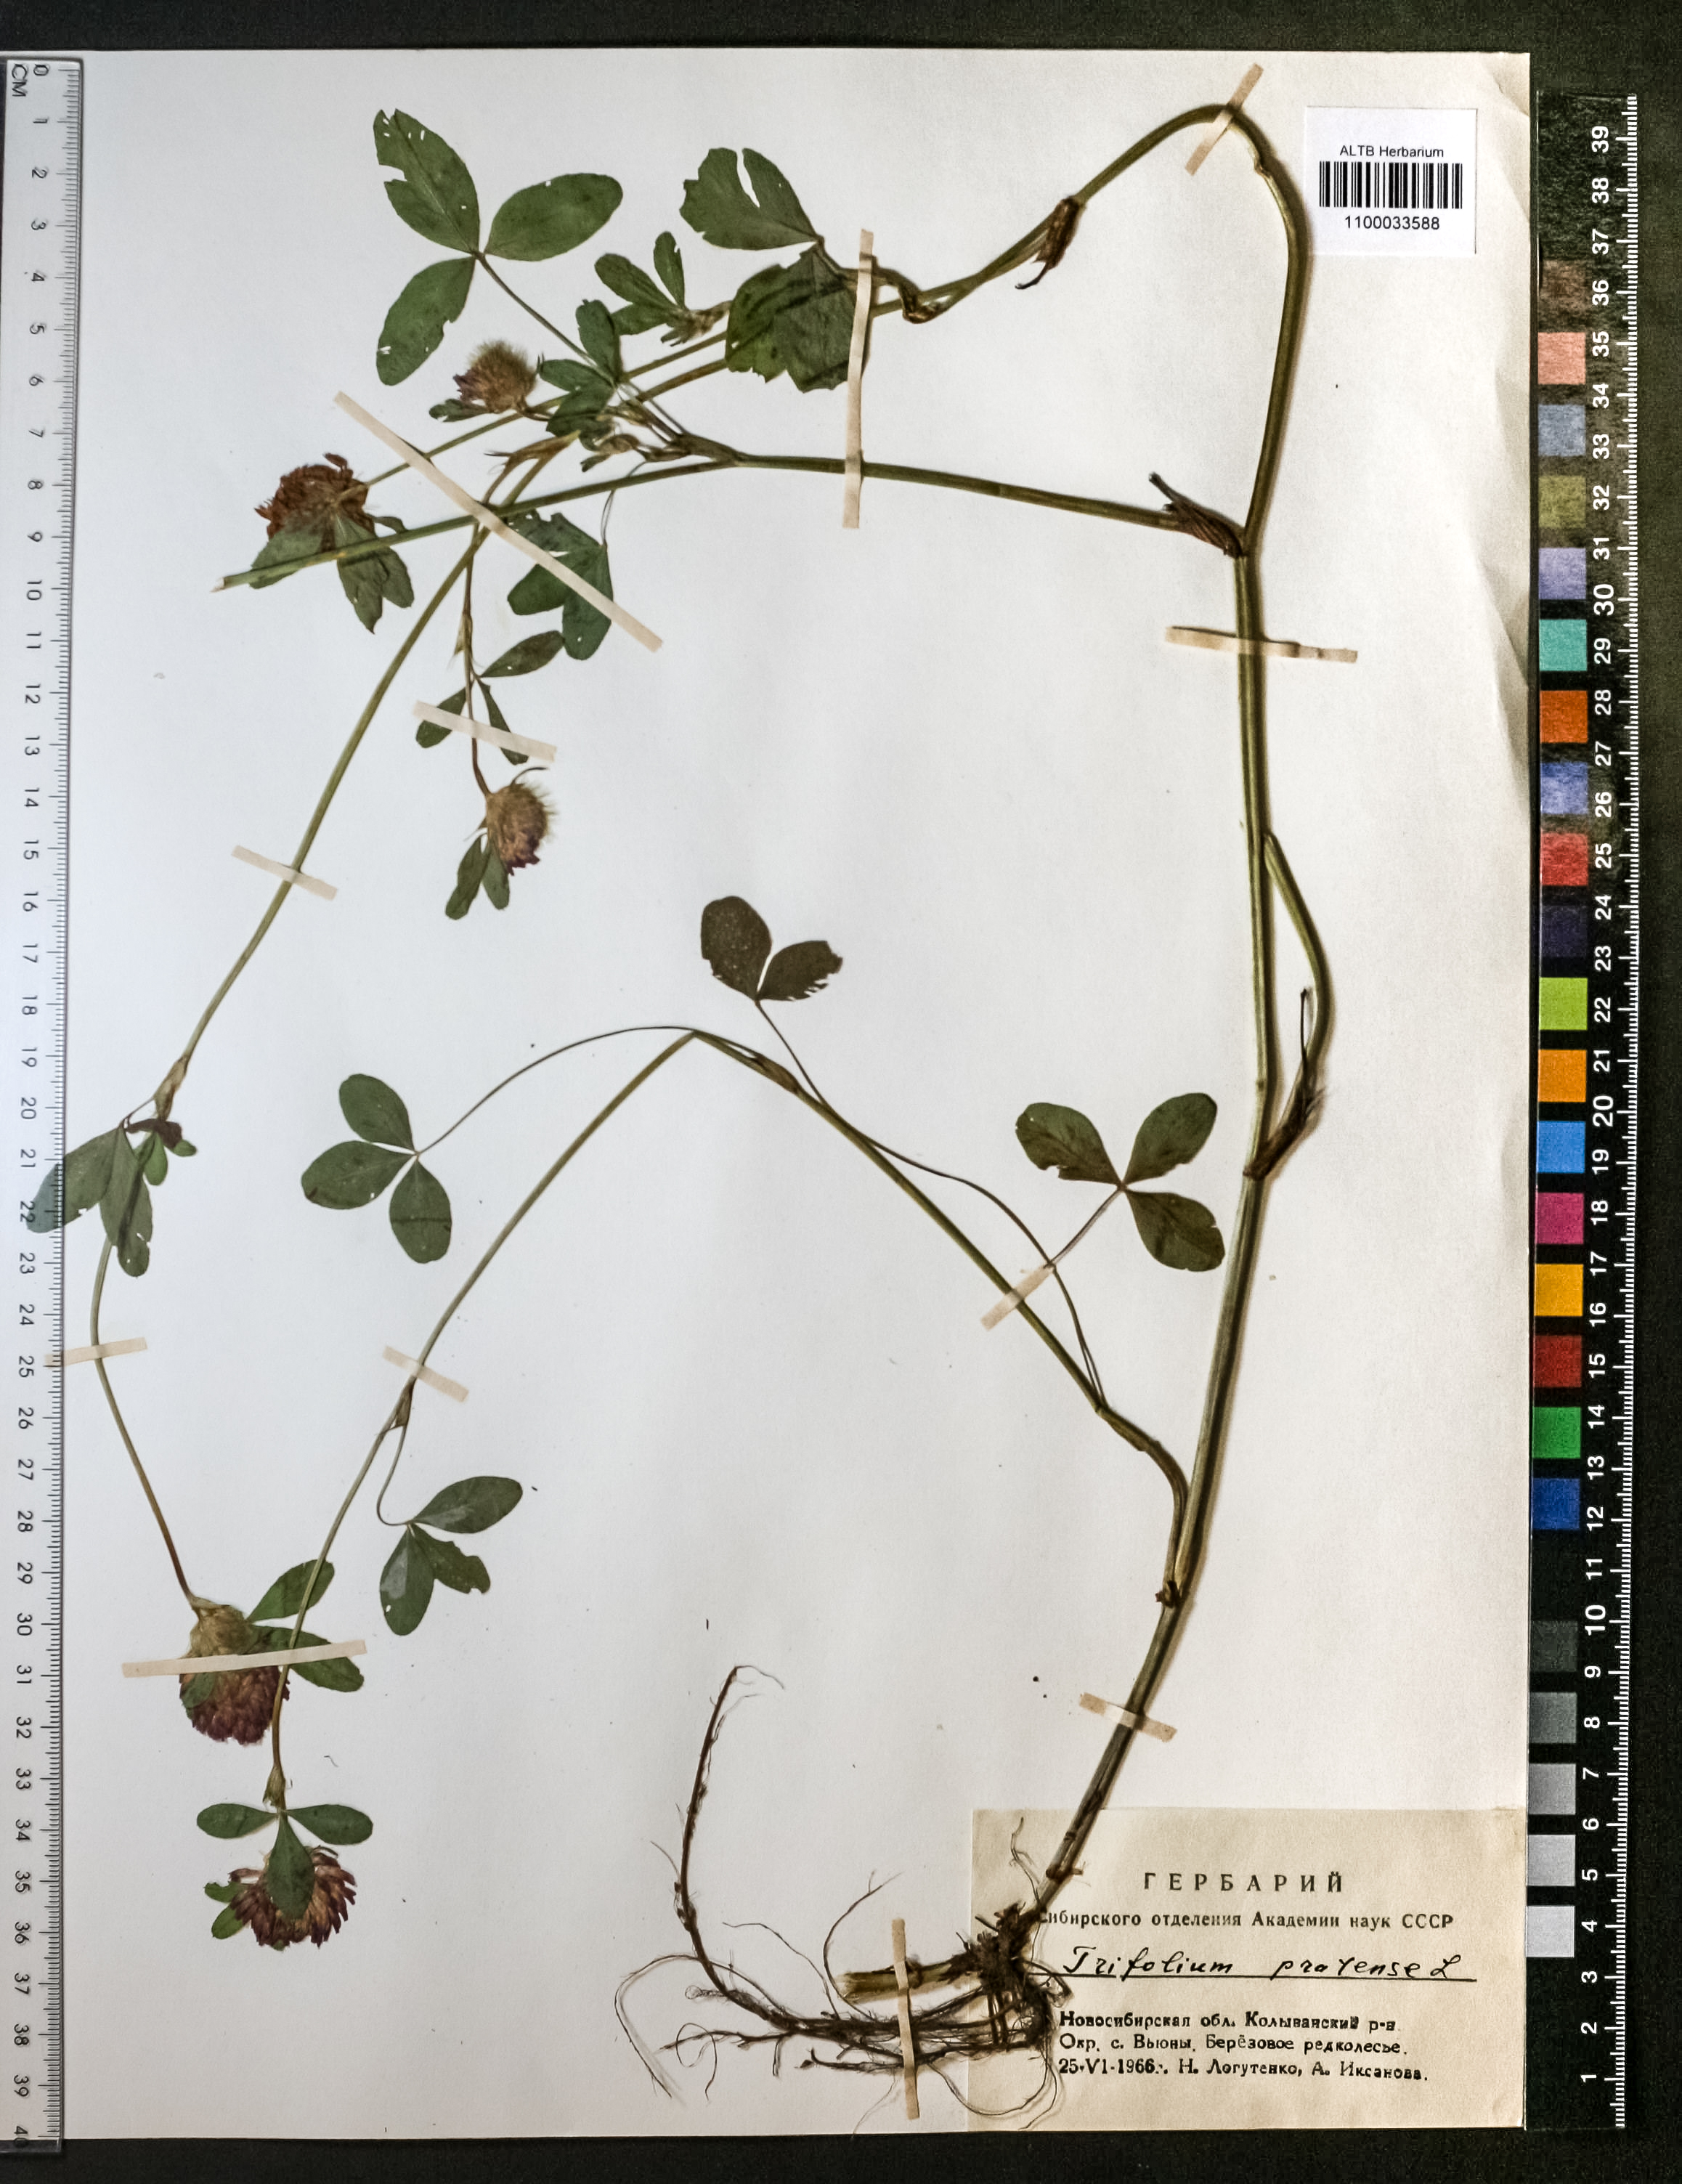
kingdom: Plantae
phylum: Tracheophyta
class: Magnoliopsida
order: Fabales
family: Fabaceae
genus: Trifolium
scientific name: Trifolium pratense
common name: Red clover
